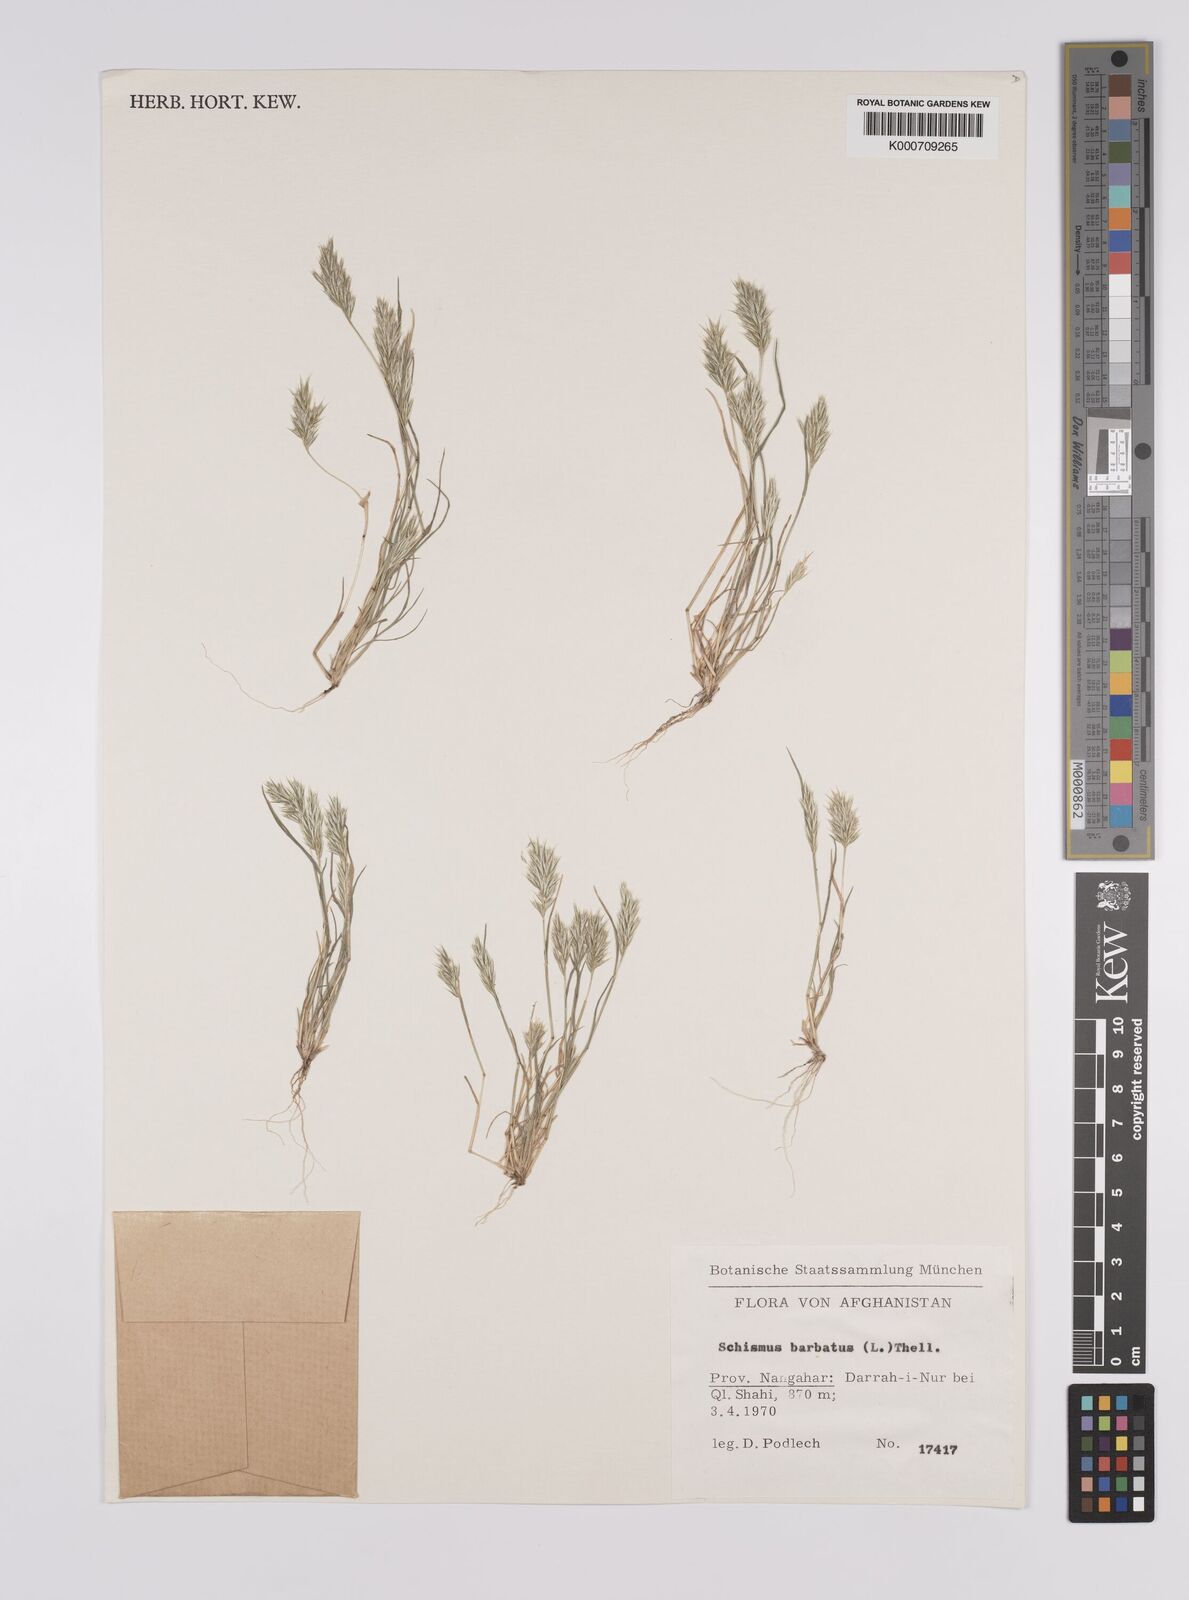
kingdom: Plantae
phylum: Tracheophyta
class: Liliopsida
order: Poales
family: Poaceae
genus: Schismus
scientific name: Schismus barbatus
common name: Kelch-grass
